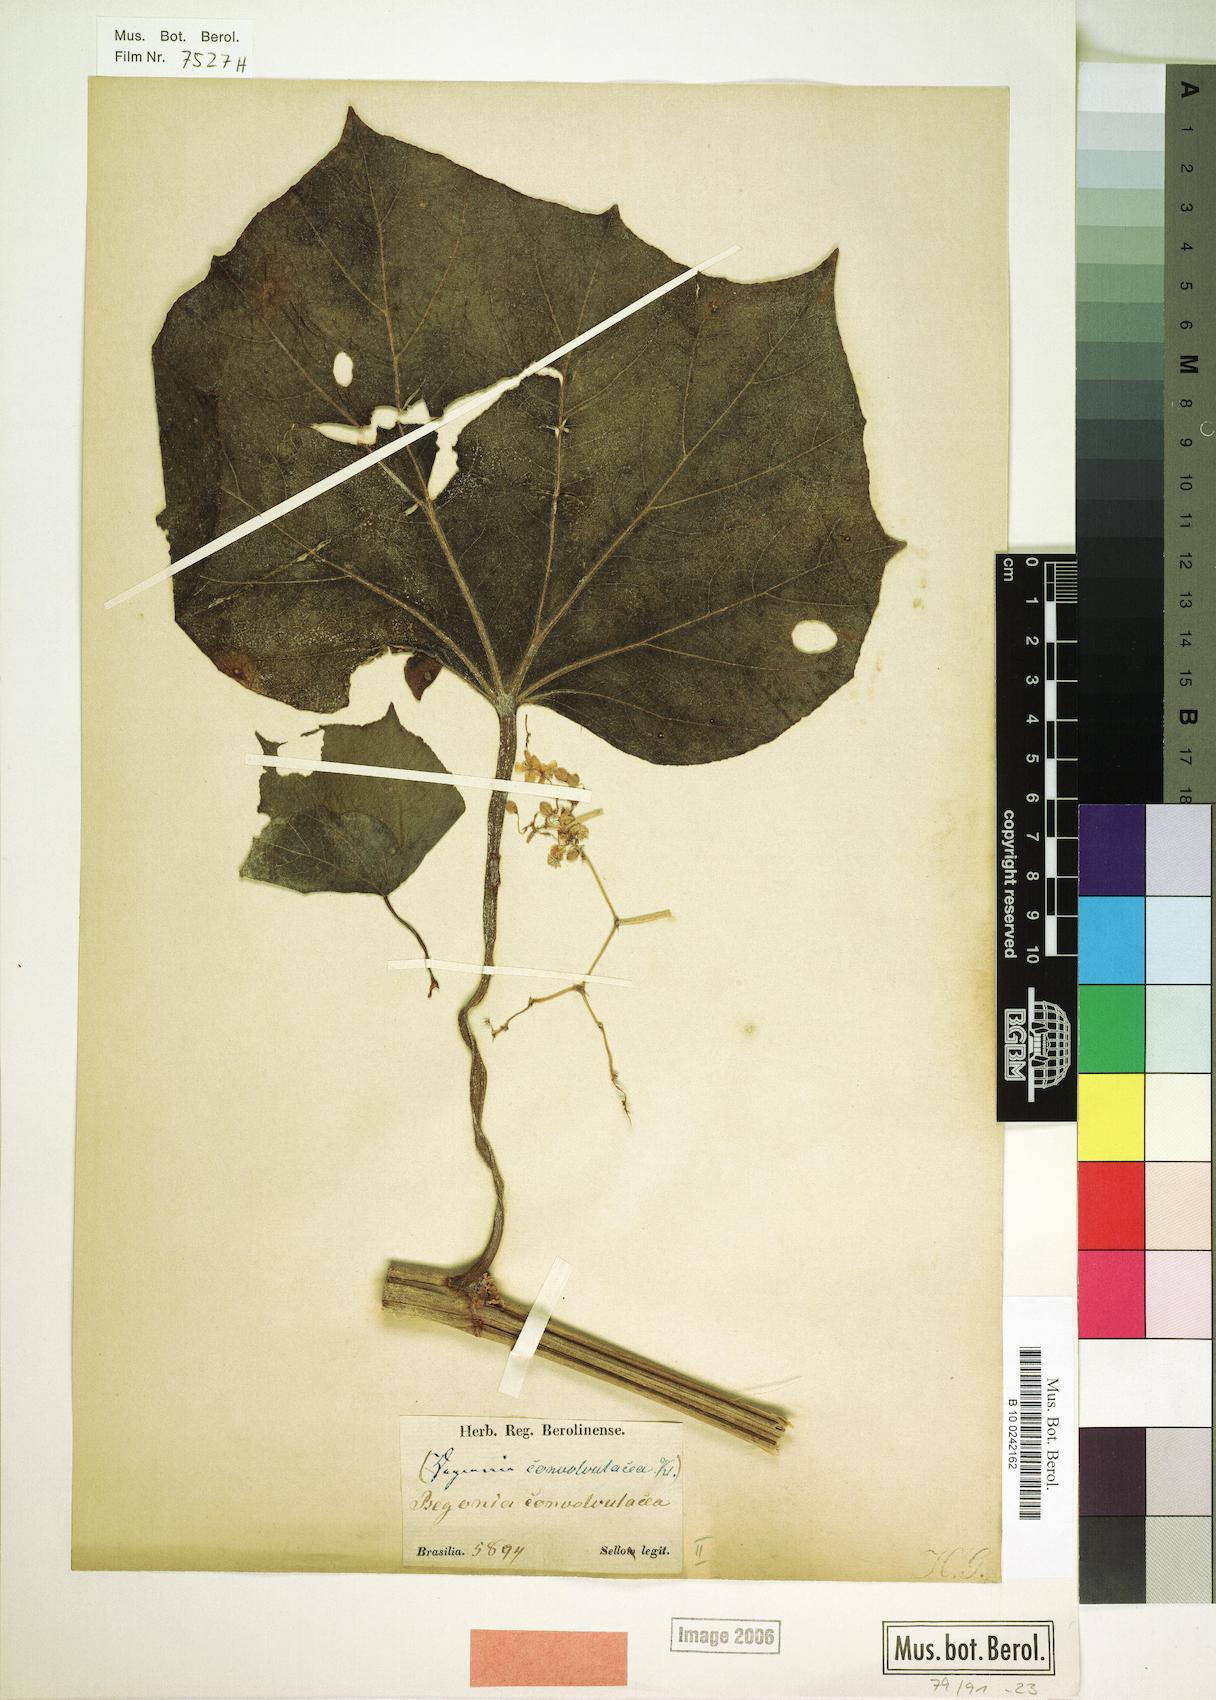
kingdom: Plantae
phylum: Tracheophyta
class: Magnoliopsida
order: Cucurbitales
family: Begoniaceae
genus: Begonia
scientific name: Begonia convolvulacea
